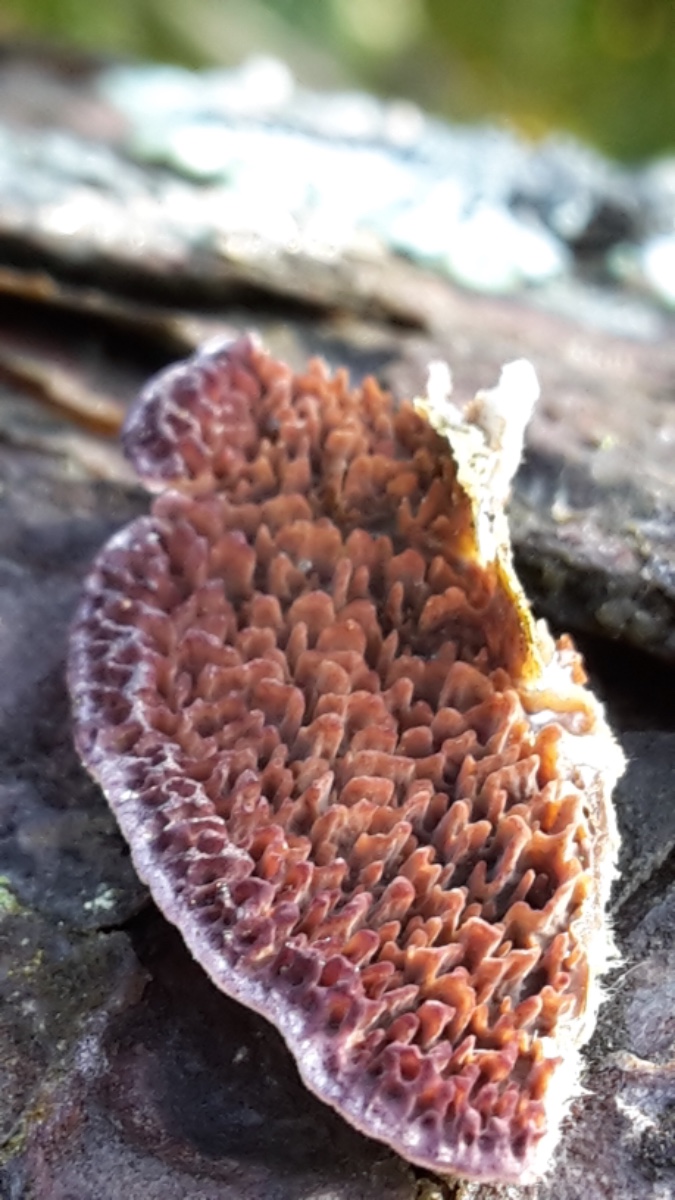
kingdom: Fungi
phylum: Basidiomycota
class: Agaricomycetes
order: Hymenochaetales
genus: Trichaptum
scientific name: Trichaptum fuscoviolaceum
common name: tandet violporesvamp
